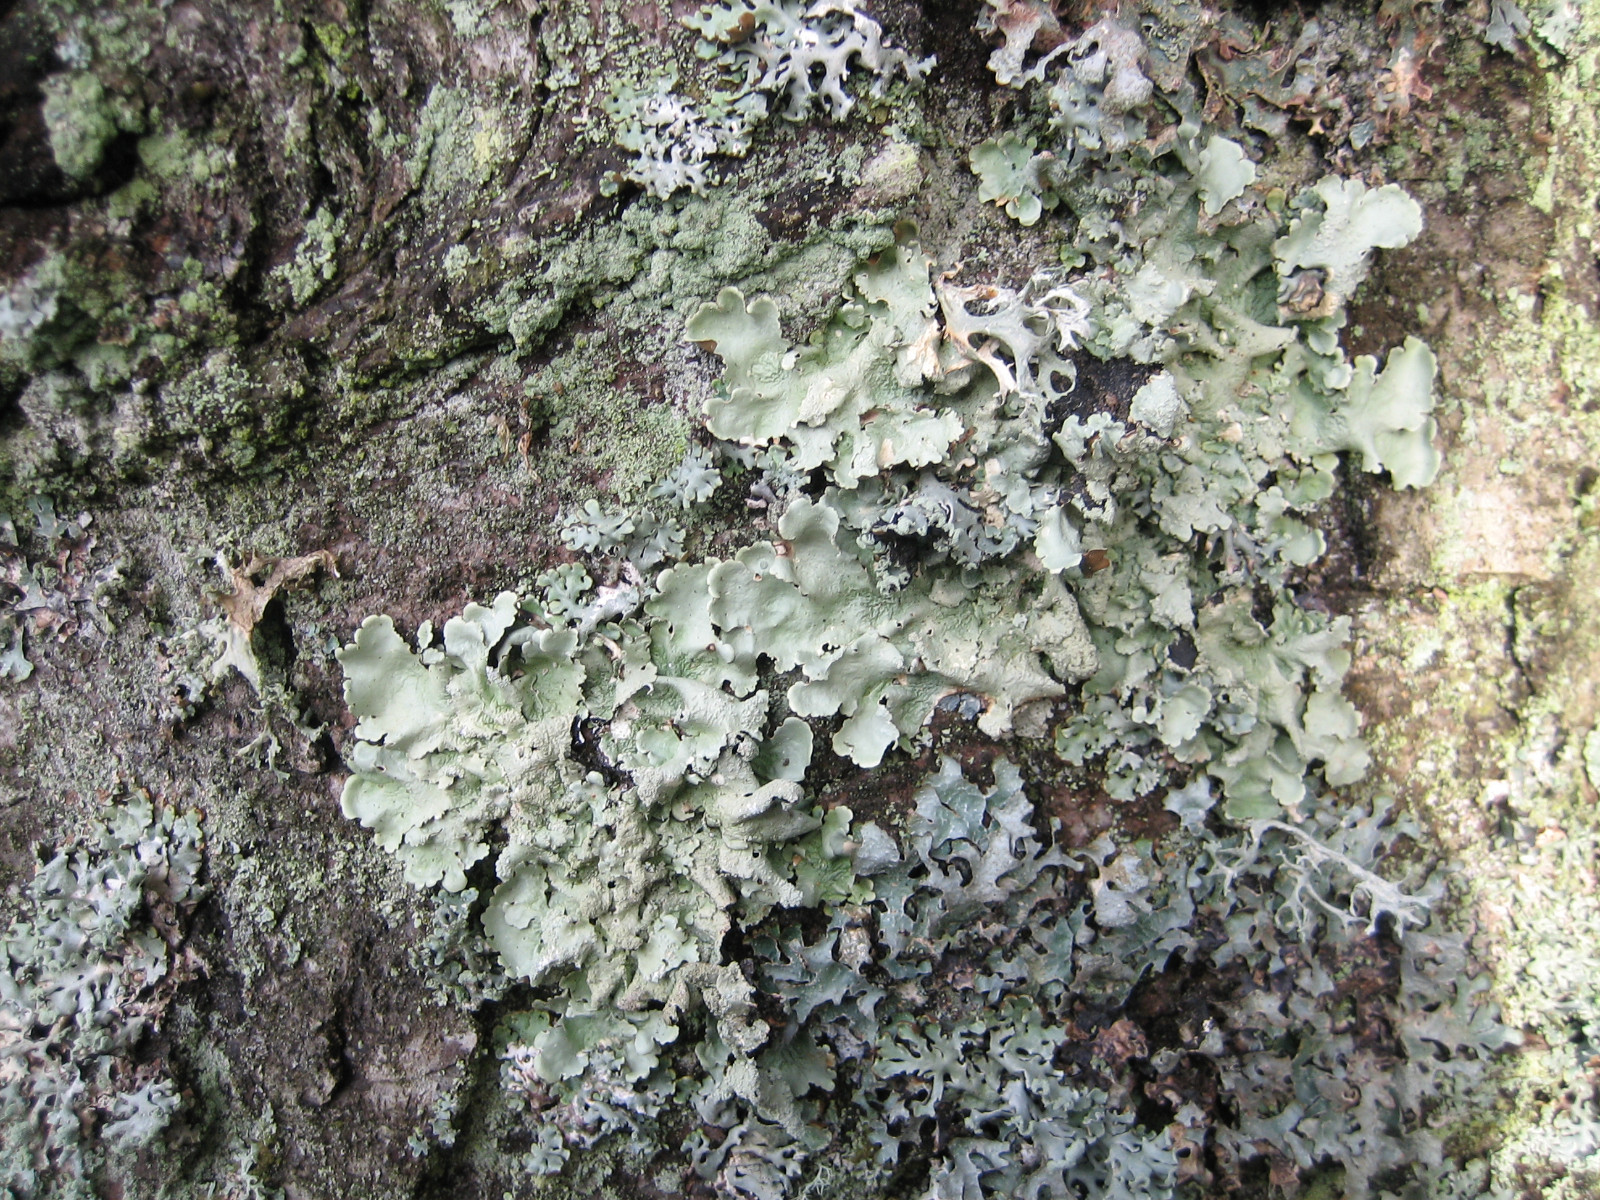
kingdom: Fungi
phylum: Ascomycota
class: Lecanoromycetes
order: Lecanorales
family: Parmeliaceae
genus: Flavoparmelia
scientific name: Flavoparmelia caperata
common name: gulgrøn skållav
